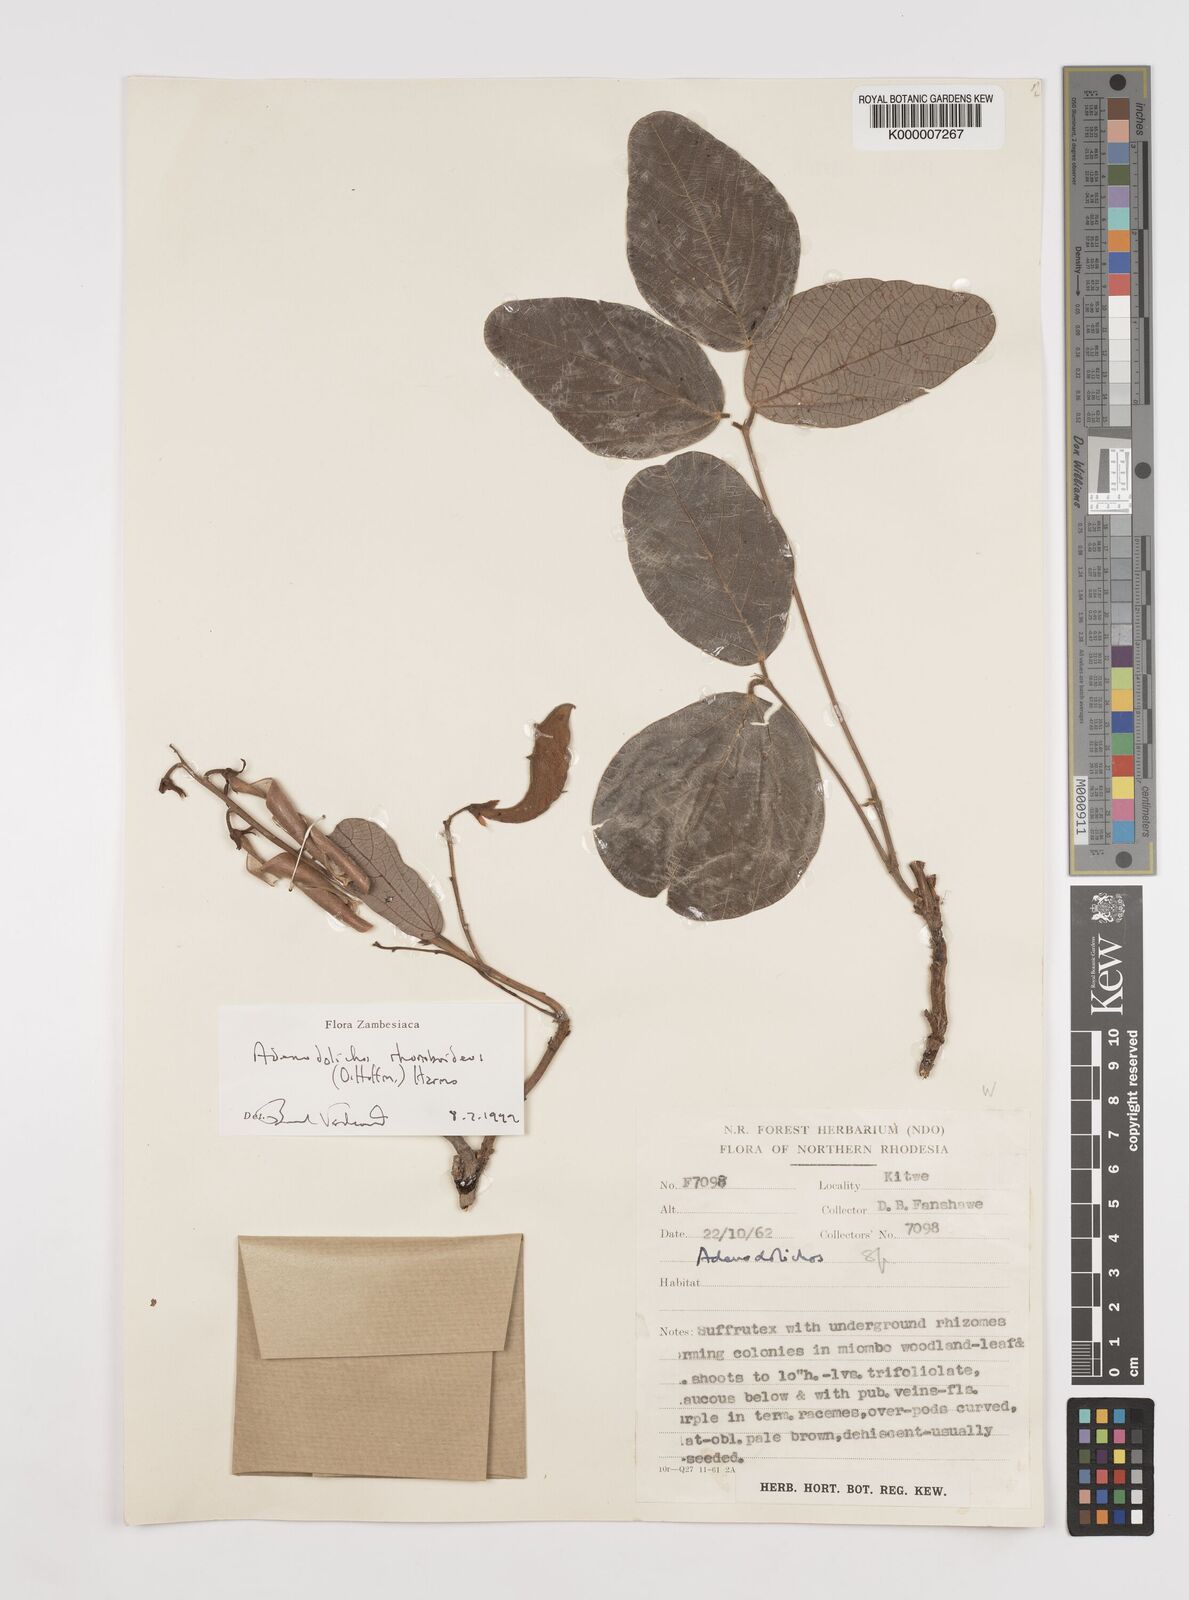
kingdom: Plantae
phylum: Tracheophyta
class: Magnoliopsida
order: Fabales
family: Fabaceae
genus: Adenodolichos
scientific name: Adenodolichos rhomboideus
